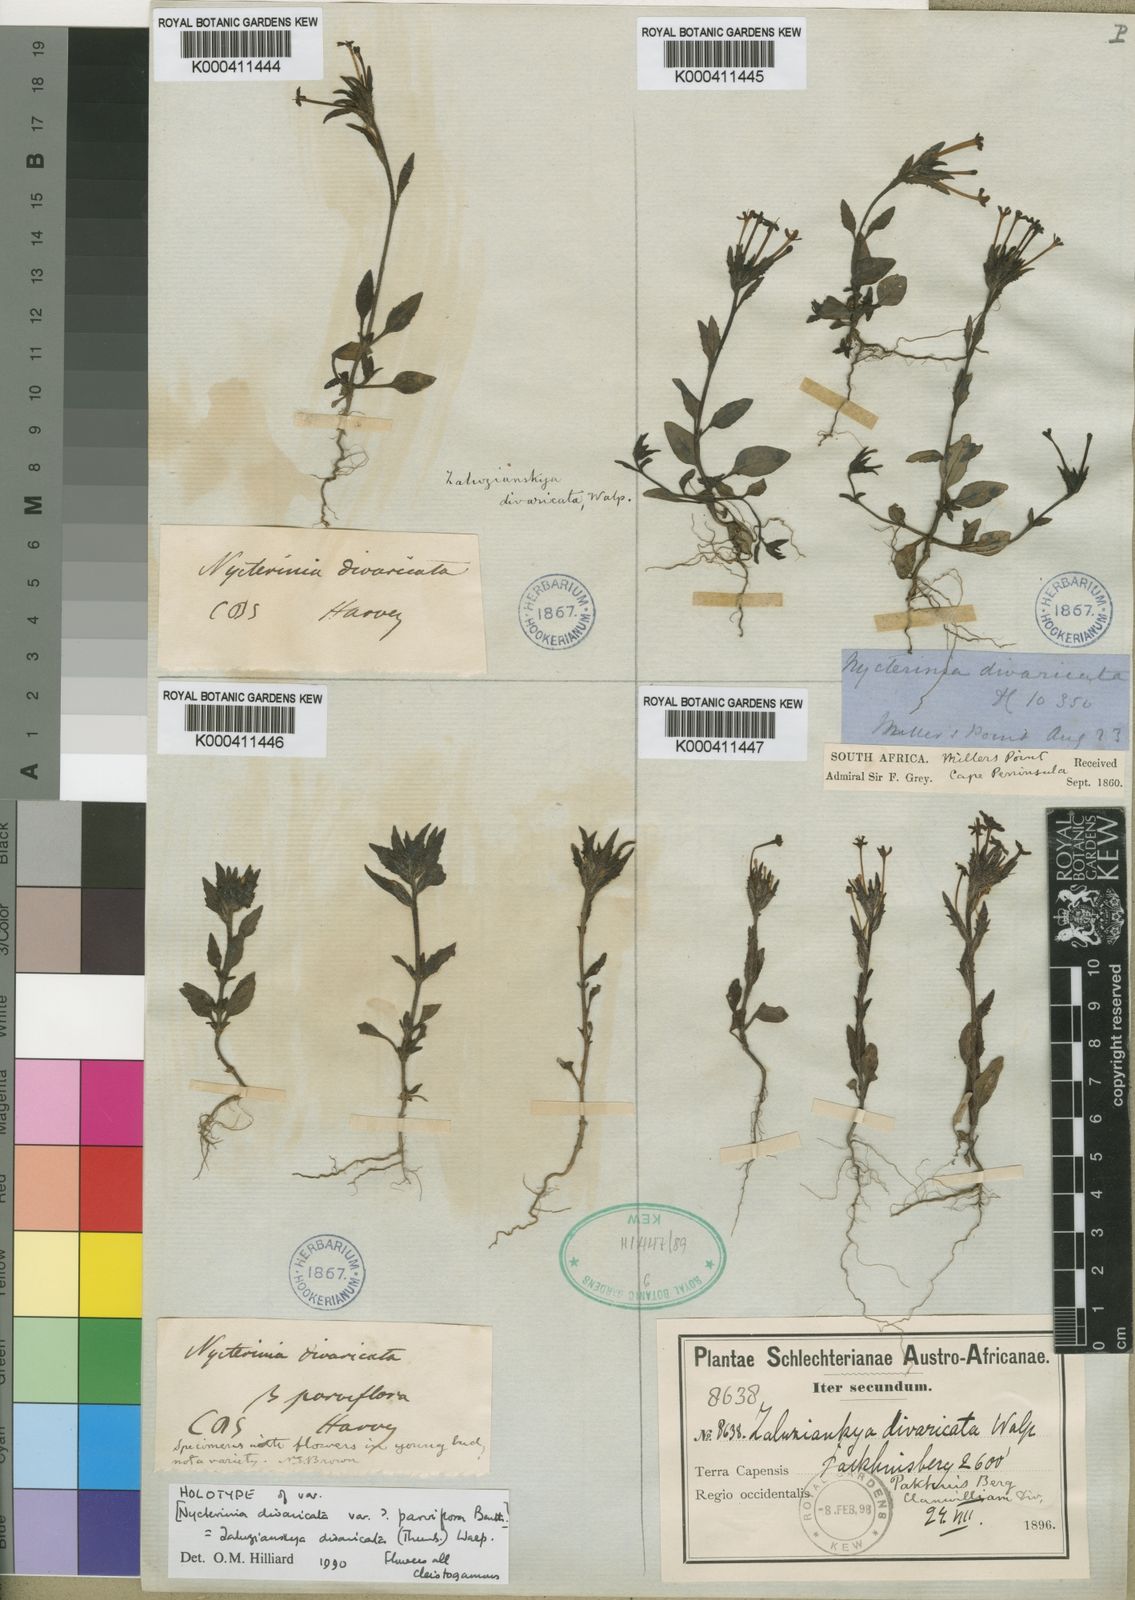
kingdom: Plantae
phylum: Tracheophyta
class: Magnoliopsida
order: Lamiales
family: Scrophulariaceae
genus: Zaluzianskya
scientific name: Zaluzianskya divaricata
